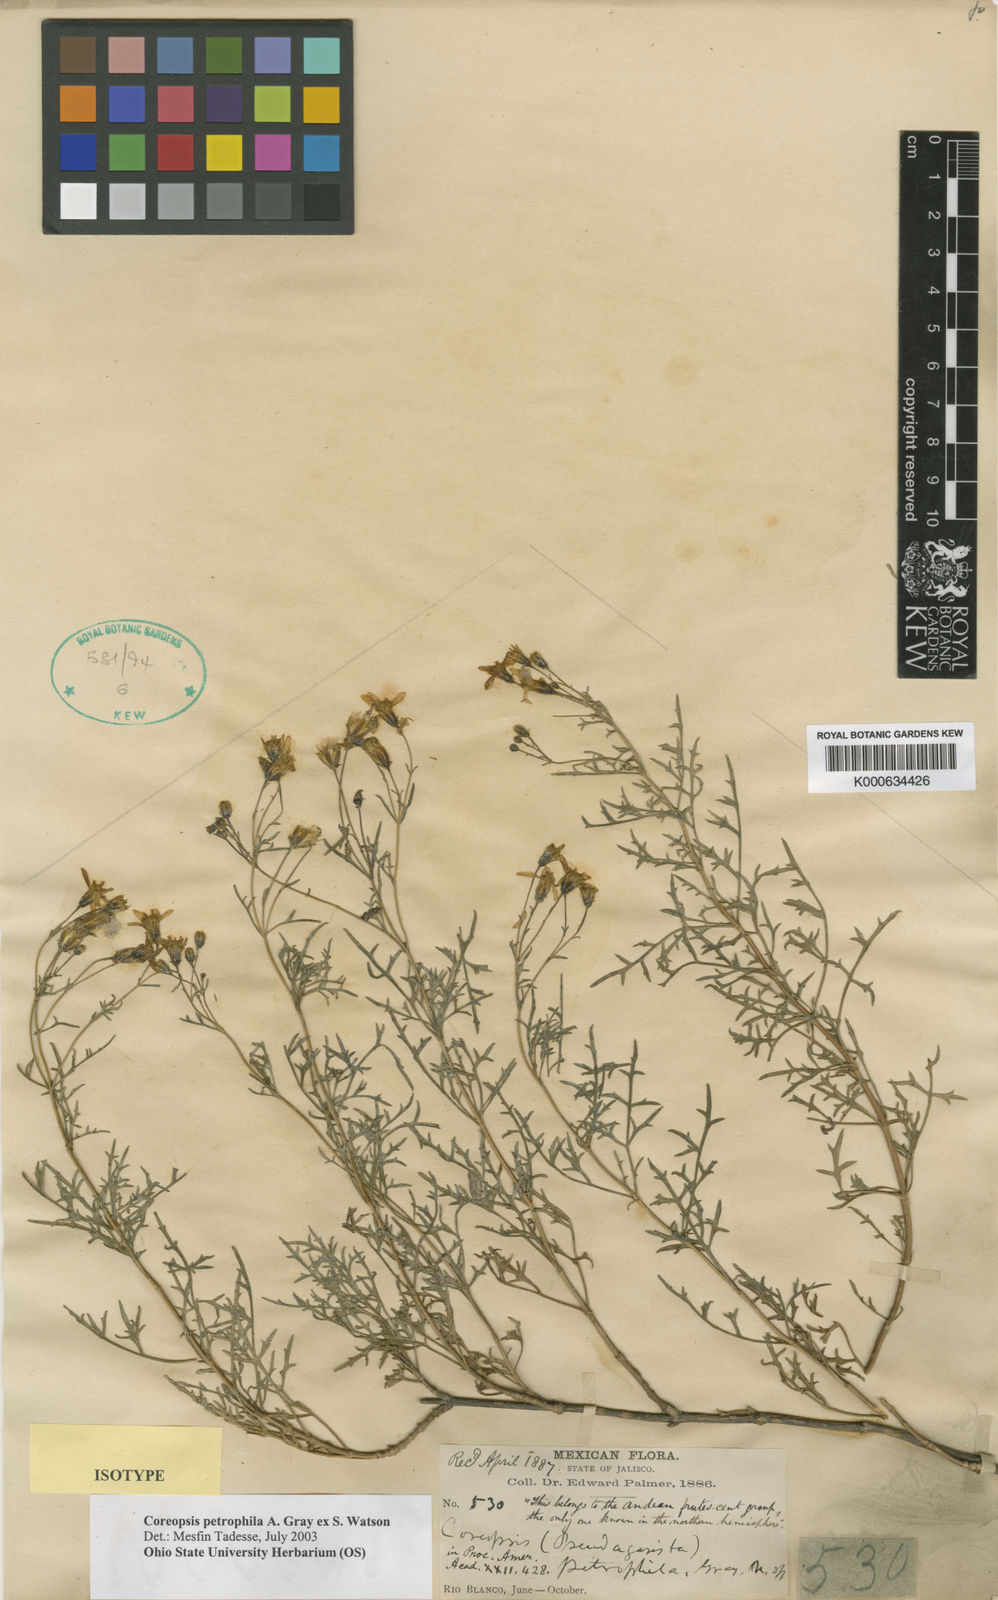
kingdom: Plantae
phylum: Tracheophyta
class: Magnoliopsida
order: Asterales
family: Asteraceae
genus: Coreopsis
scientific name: Coreopsis petrophila
